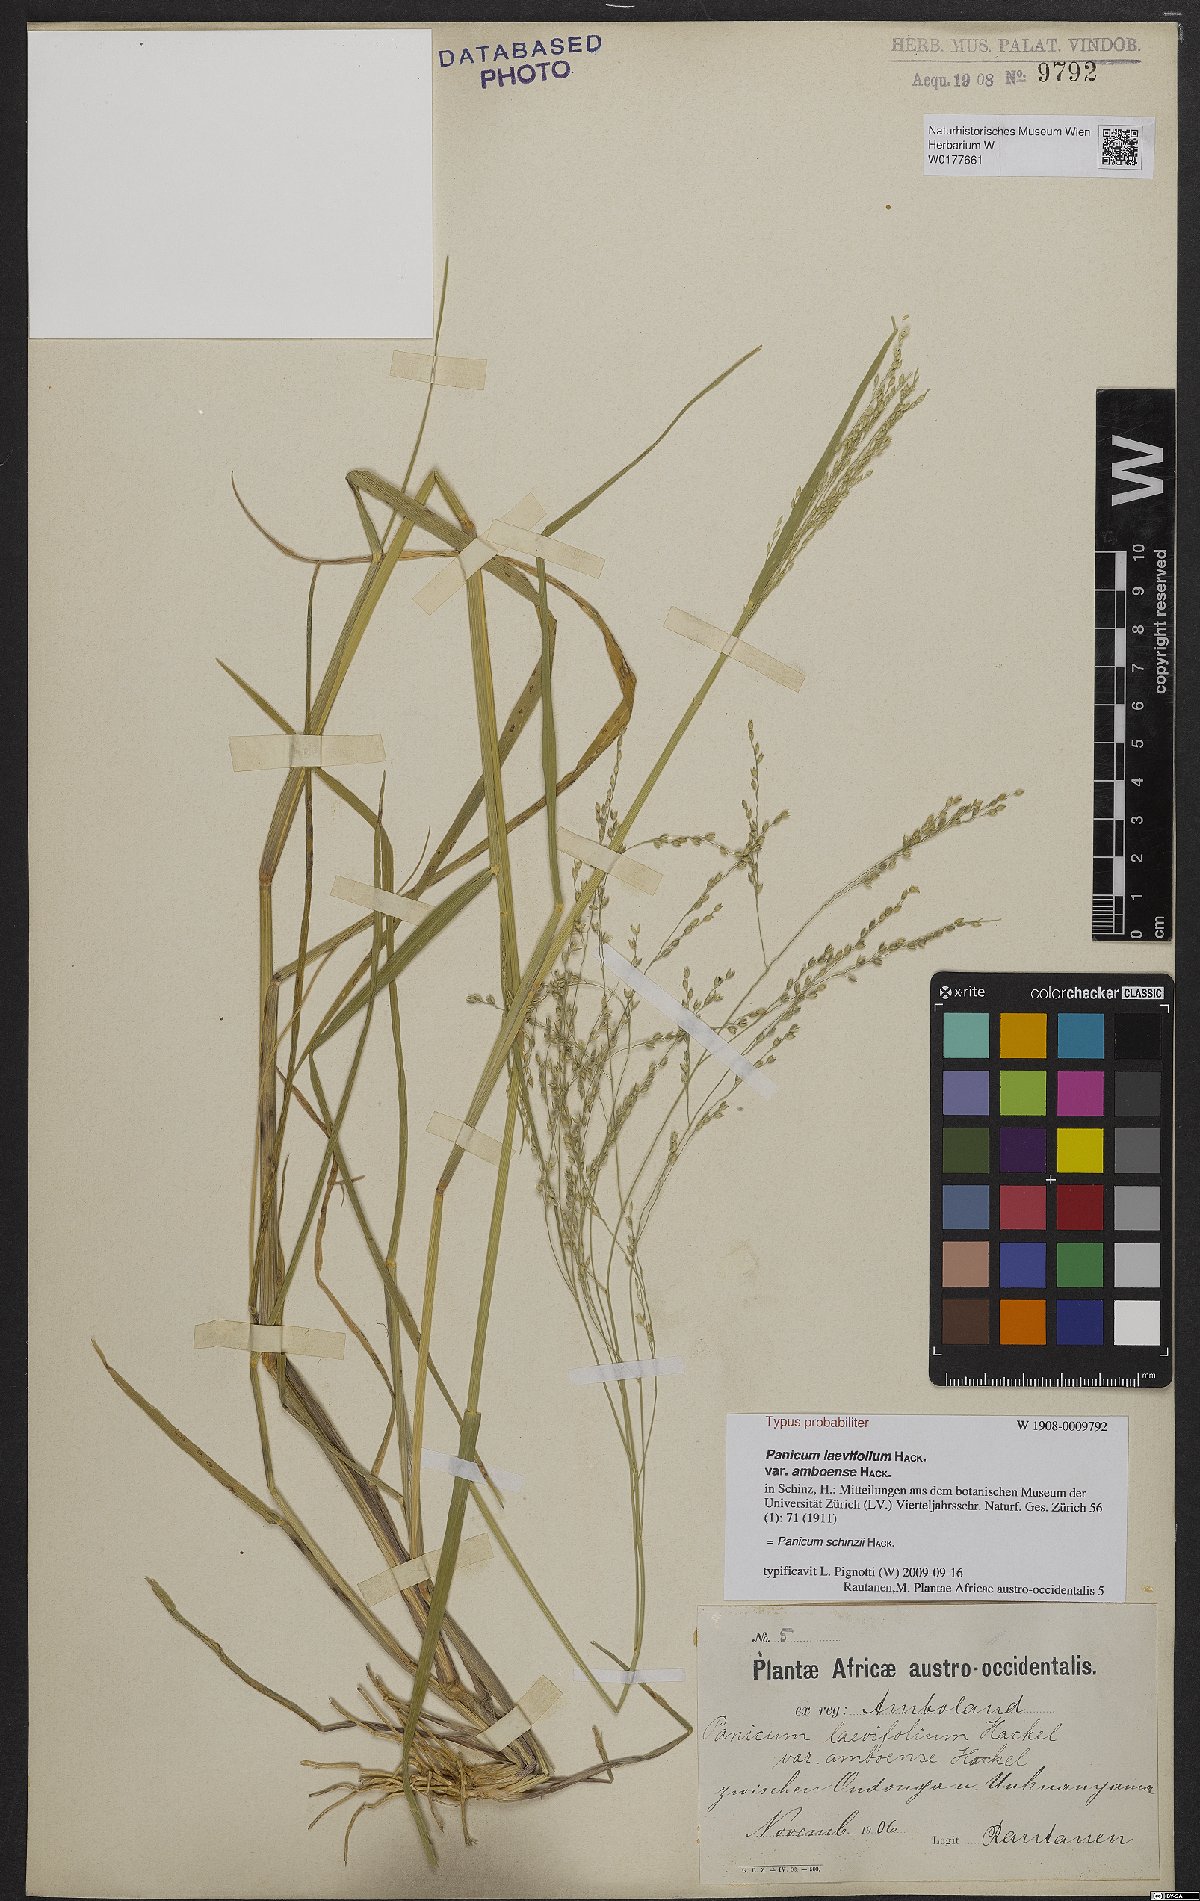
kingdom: Plantae
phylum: Tracheophyta
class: Liliopsida
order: Poales
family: Poaceae
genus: Panicum
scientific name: Panicum schinzii
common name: Sweet grass
